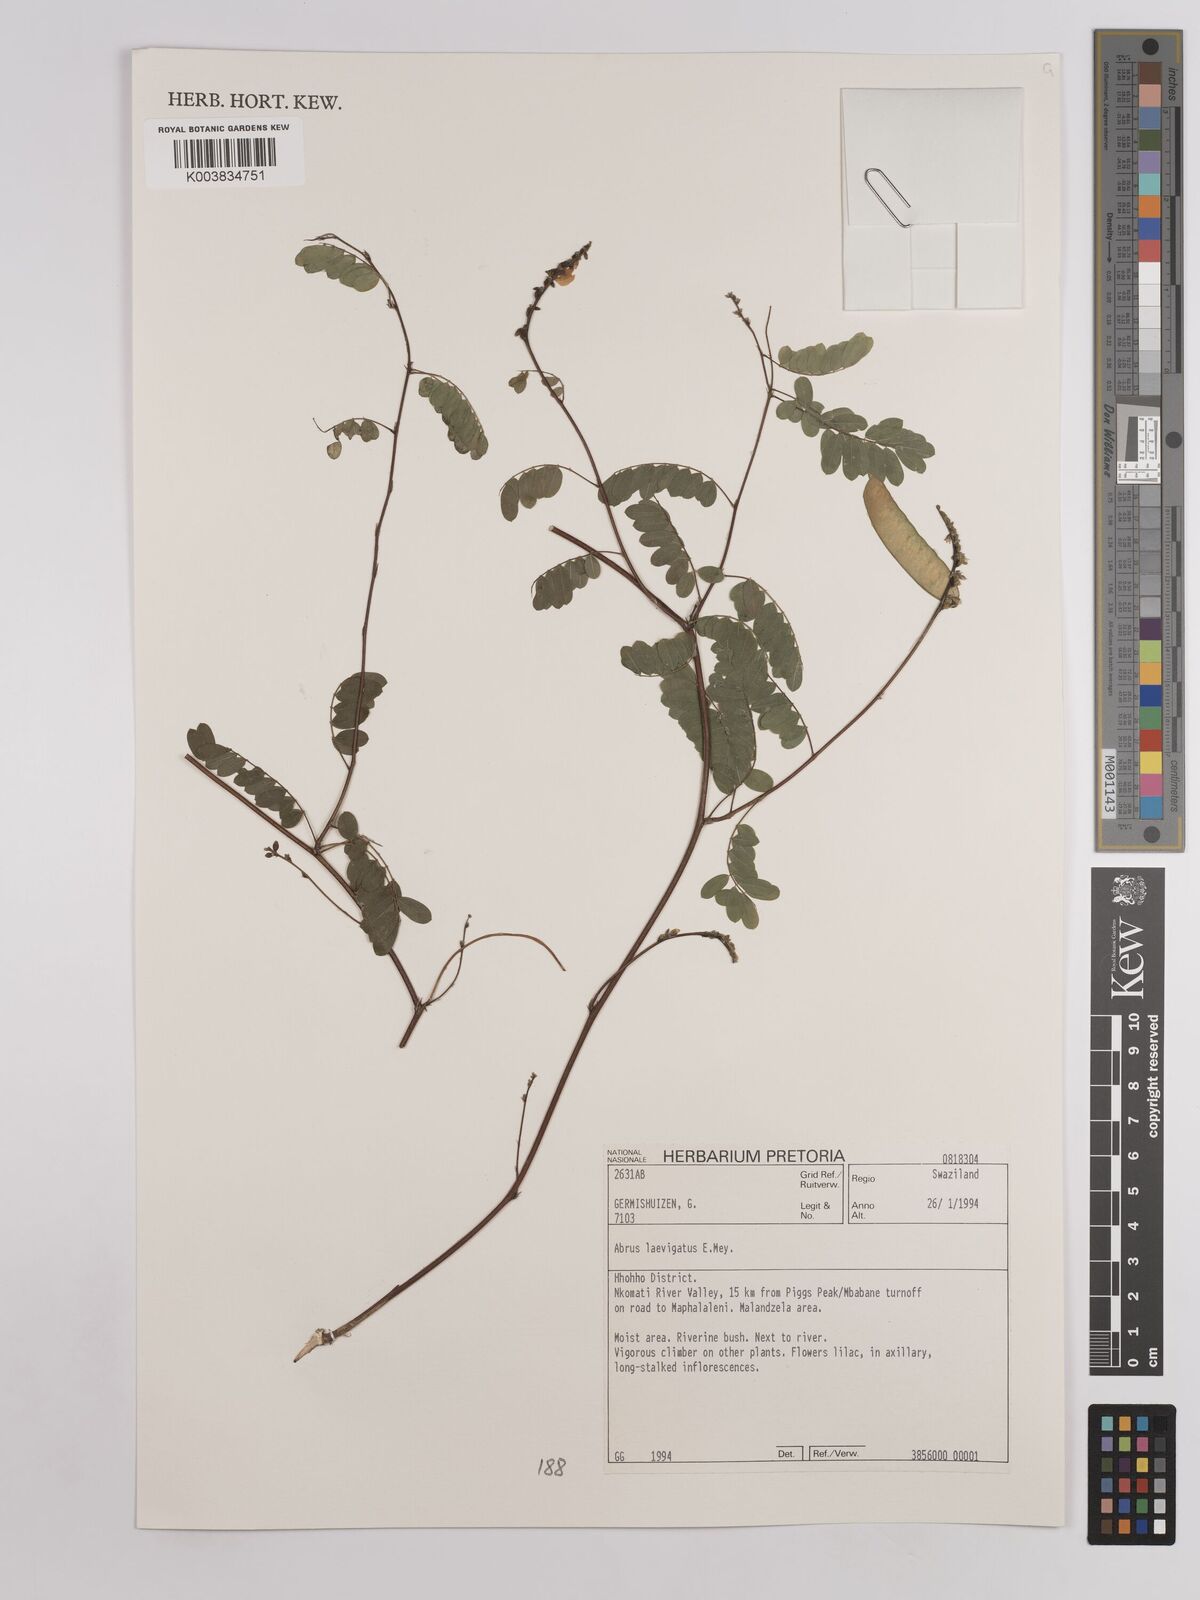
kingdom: Plantae
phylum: Tracheophyta
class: Magnoliopsida
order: Fabales
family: Fabaceae
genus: Abrus
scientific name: Abrus laevigatus
